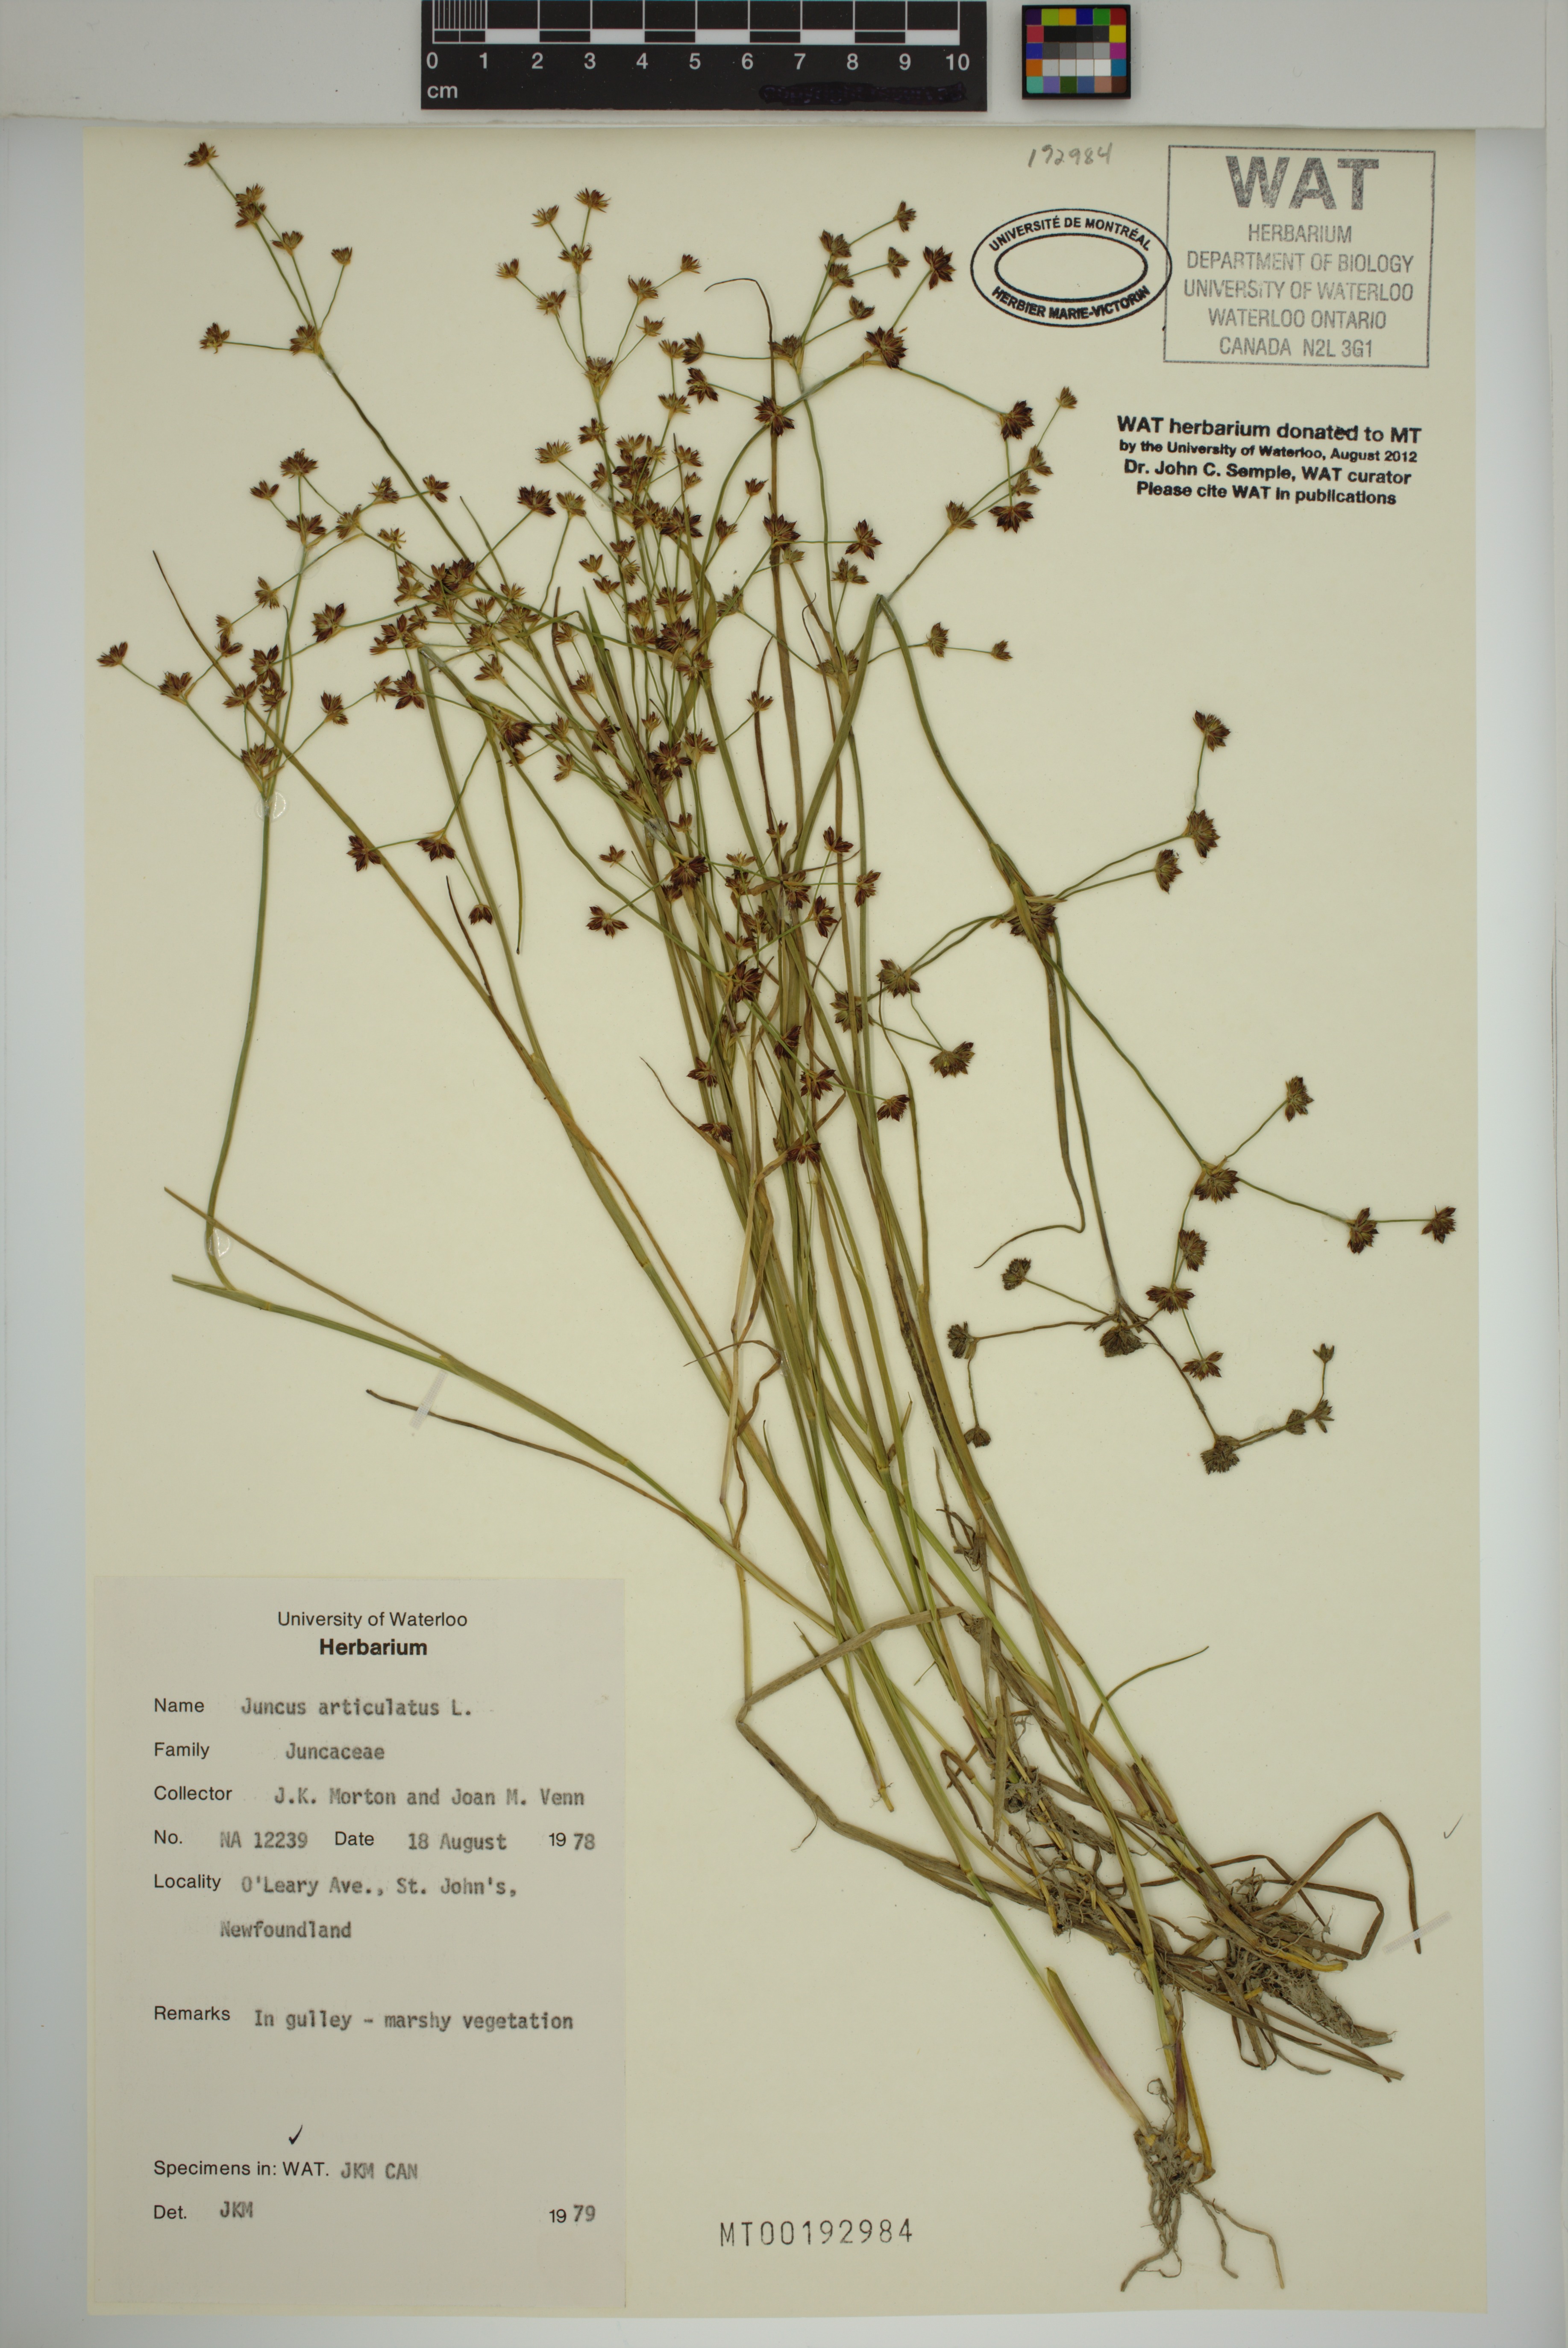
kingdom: Plantae
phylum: Tracheophyta
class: Liliopsida
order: Poales
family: Juncaceae
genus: Juncus
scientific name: Juncus articulatus
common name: Jointed rush
